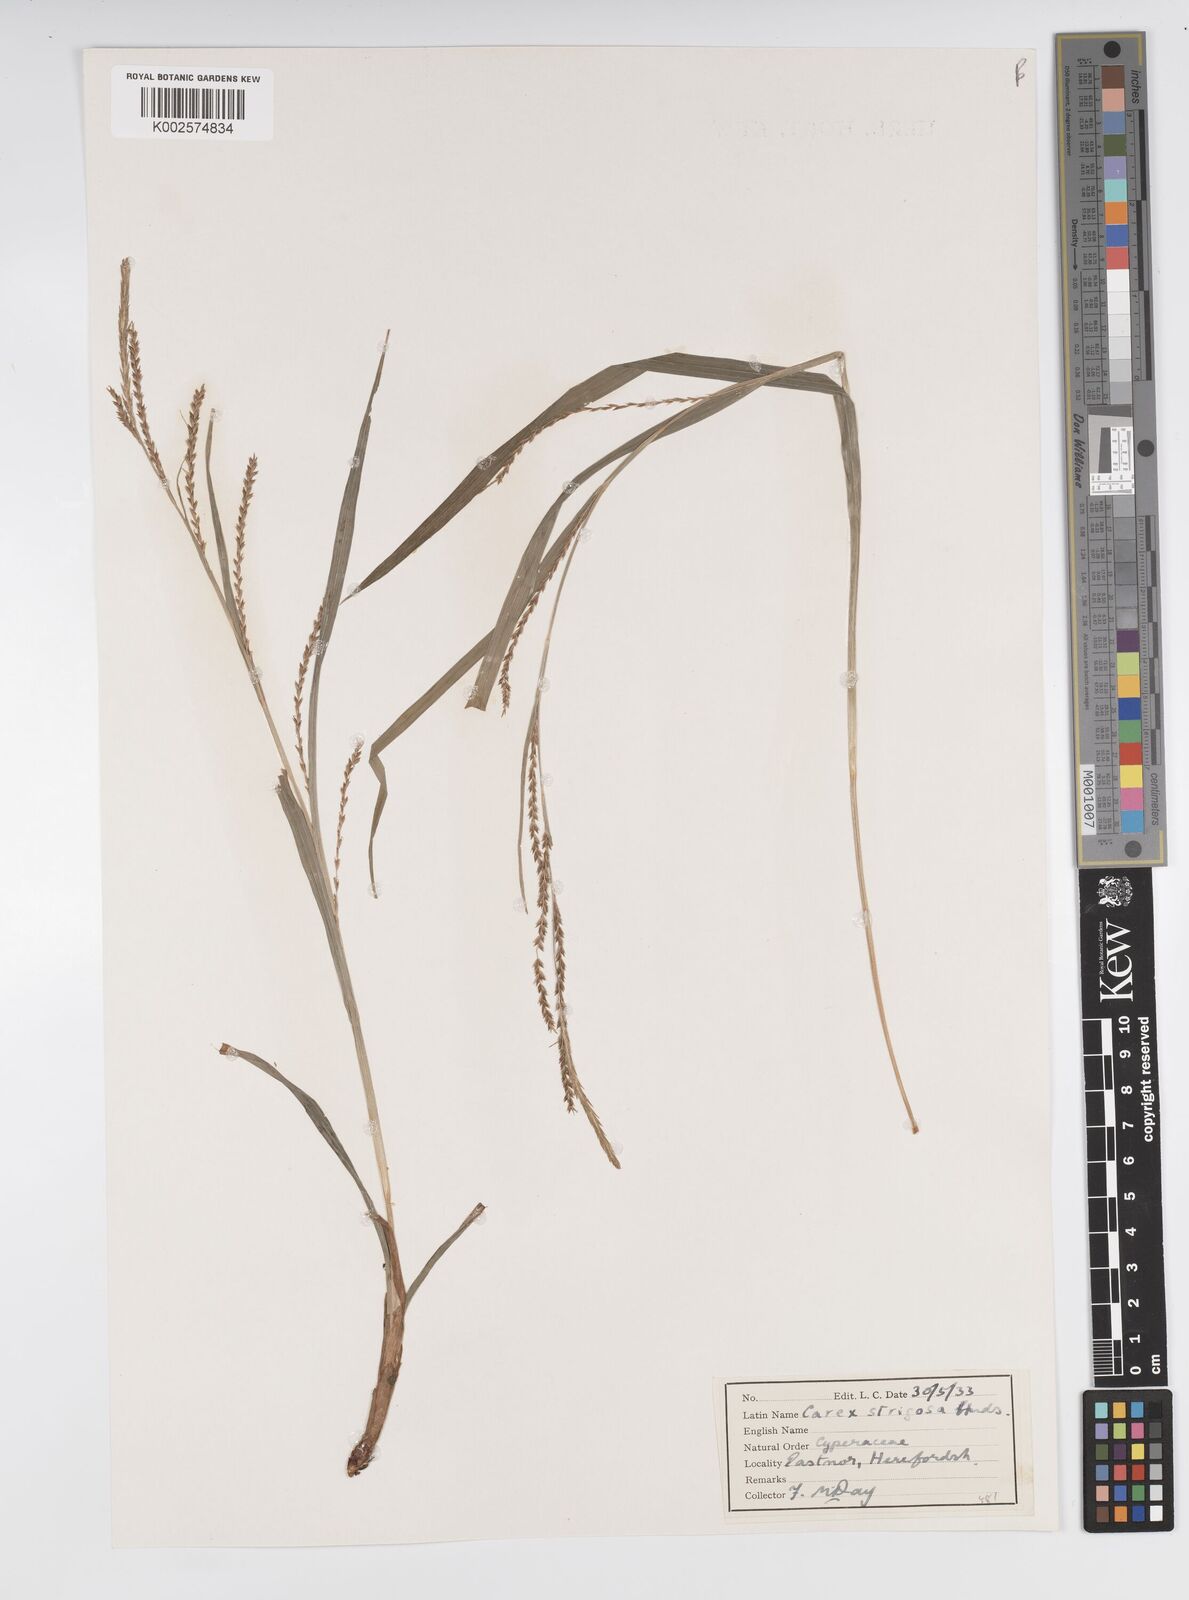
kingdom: Plantae
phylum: Tracheophyta
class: Liliopsida
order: Poales
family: Cyperaceae
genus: Carex
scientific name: Carex strigosa
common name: Thin-spiked wood-sedge
